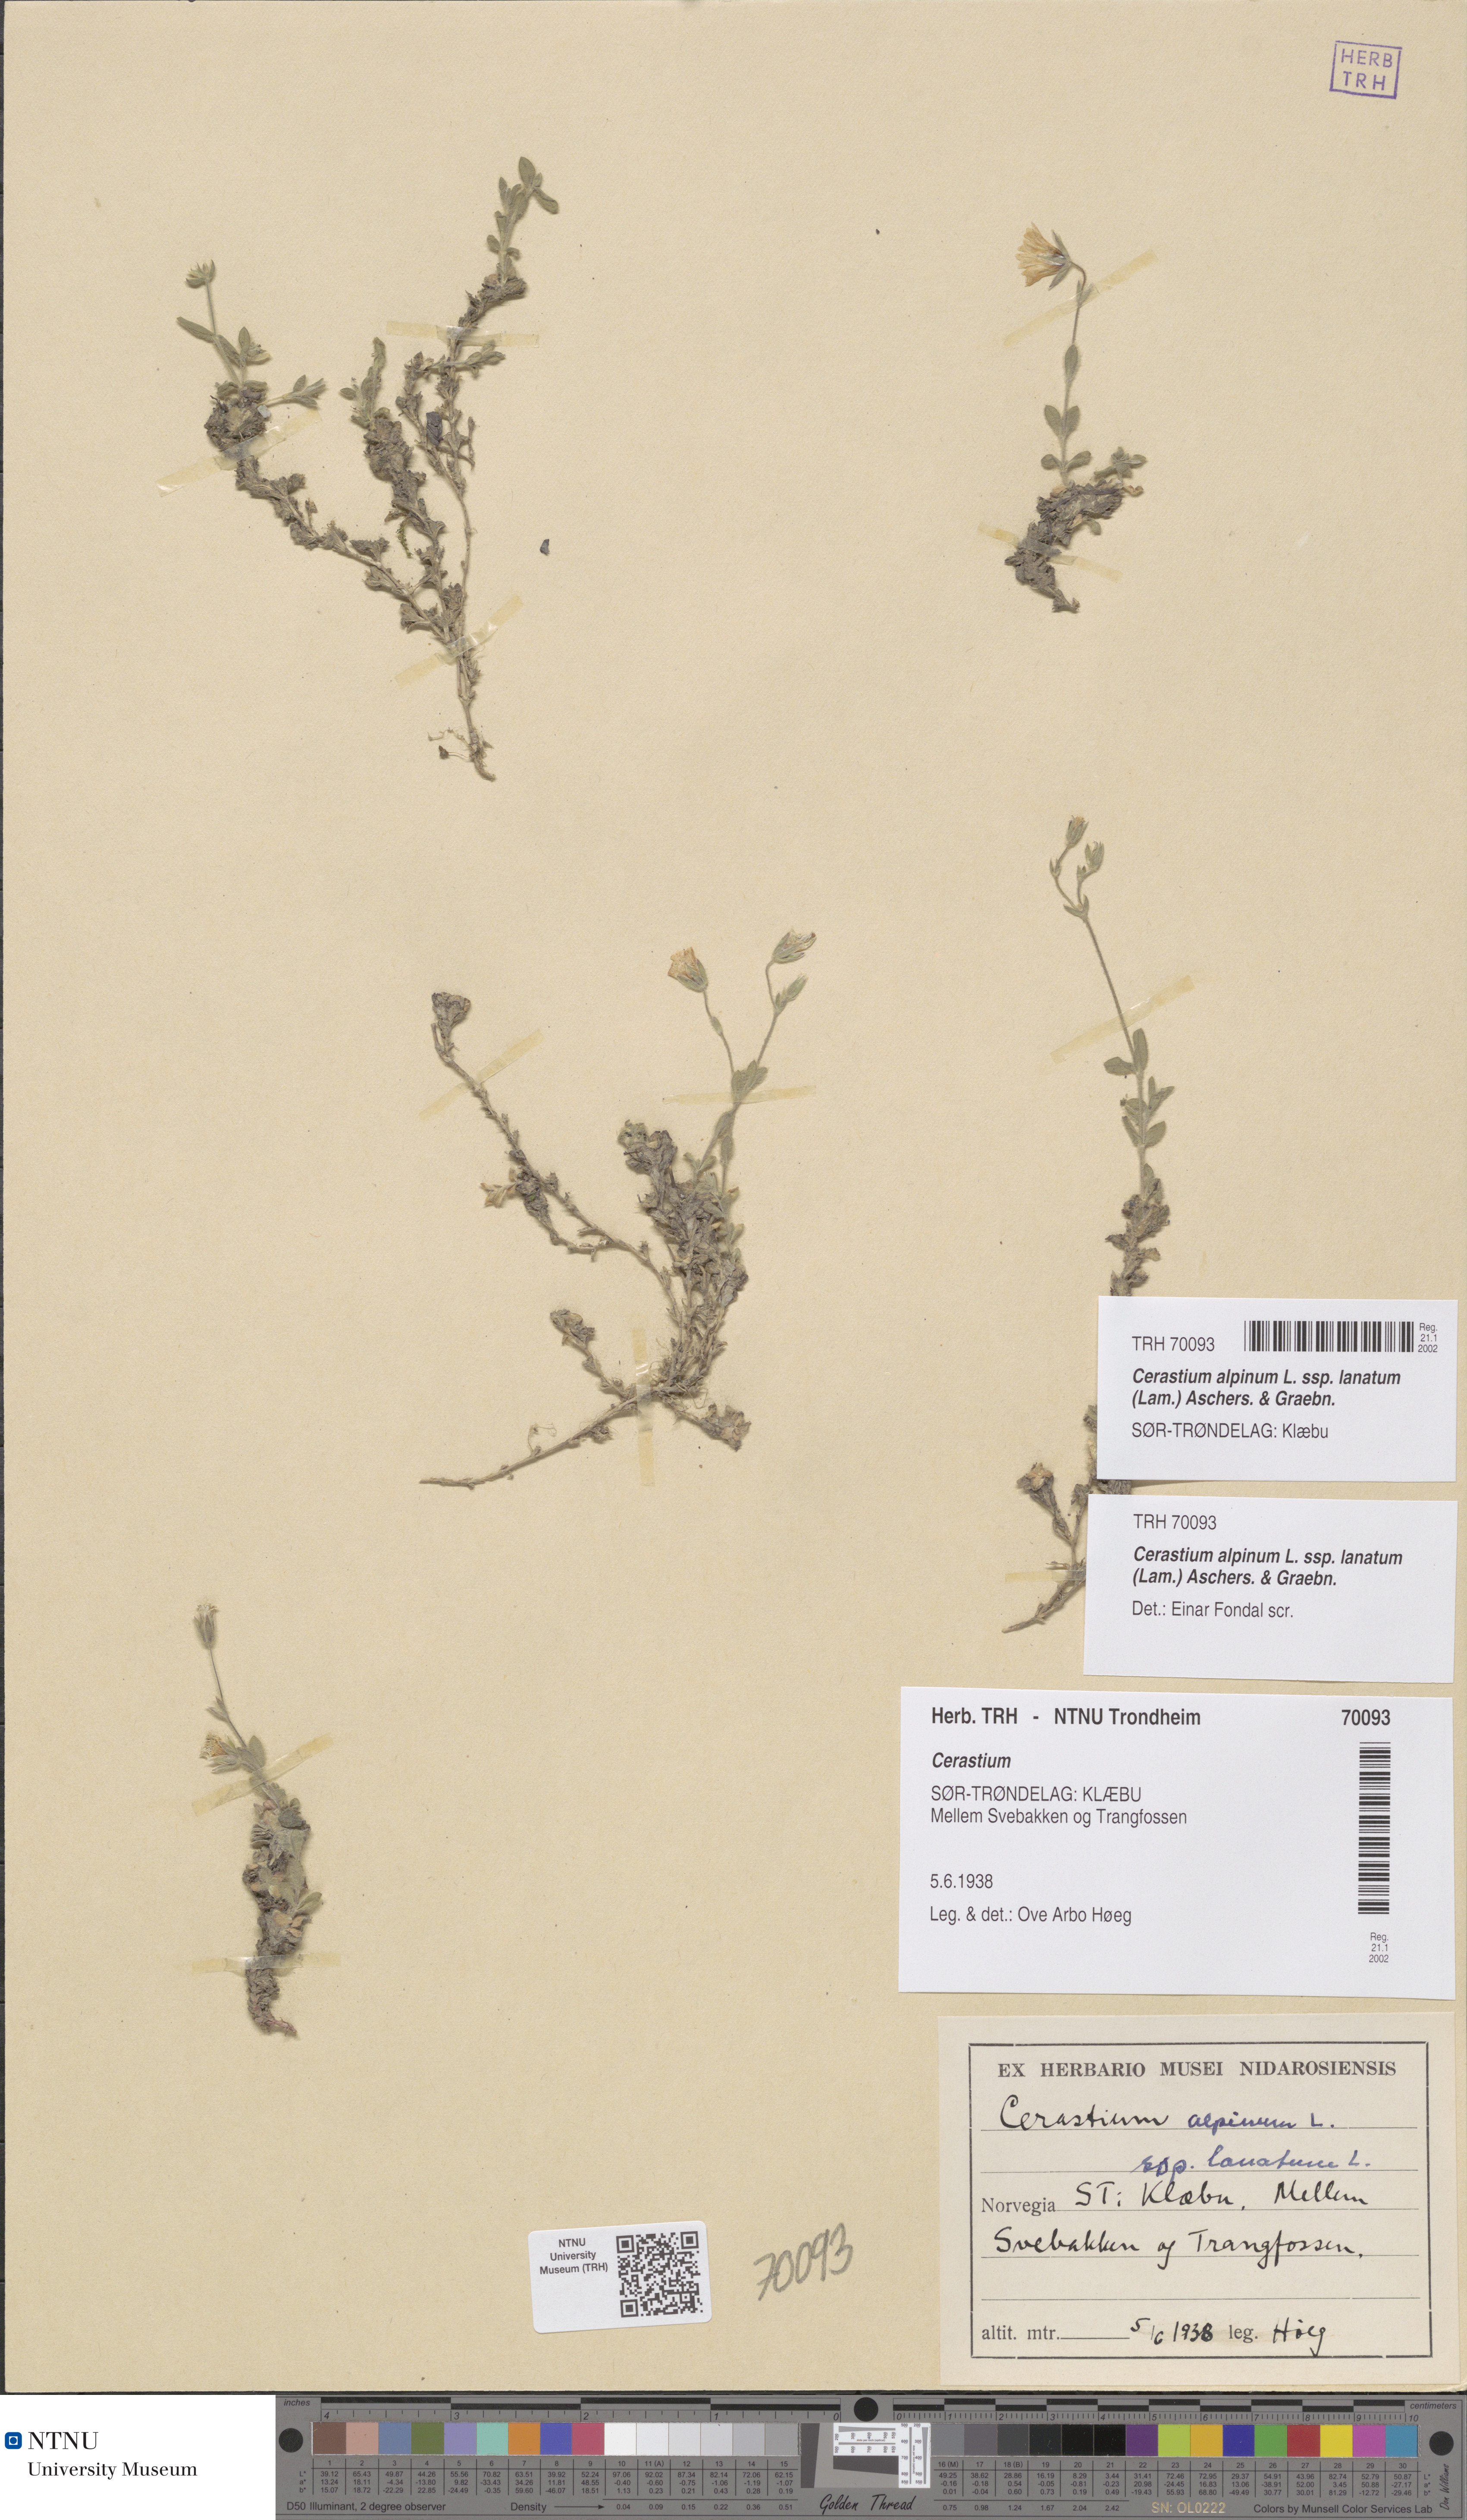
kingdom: Plantae
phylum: Tracheophyta
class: Magnoliopsida
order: Caryophyllales
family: Caryophyllaceae
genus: Cerastium
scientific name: Cerastium alpinum
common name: Alpine mouse-ear
